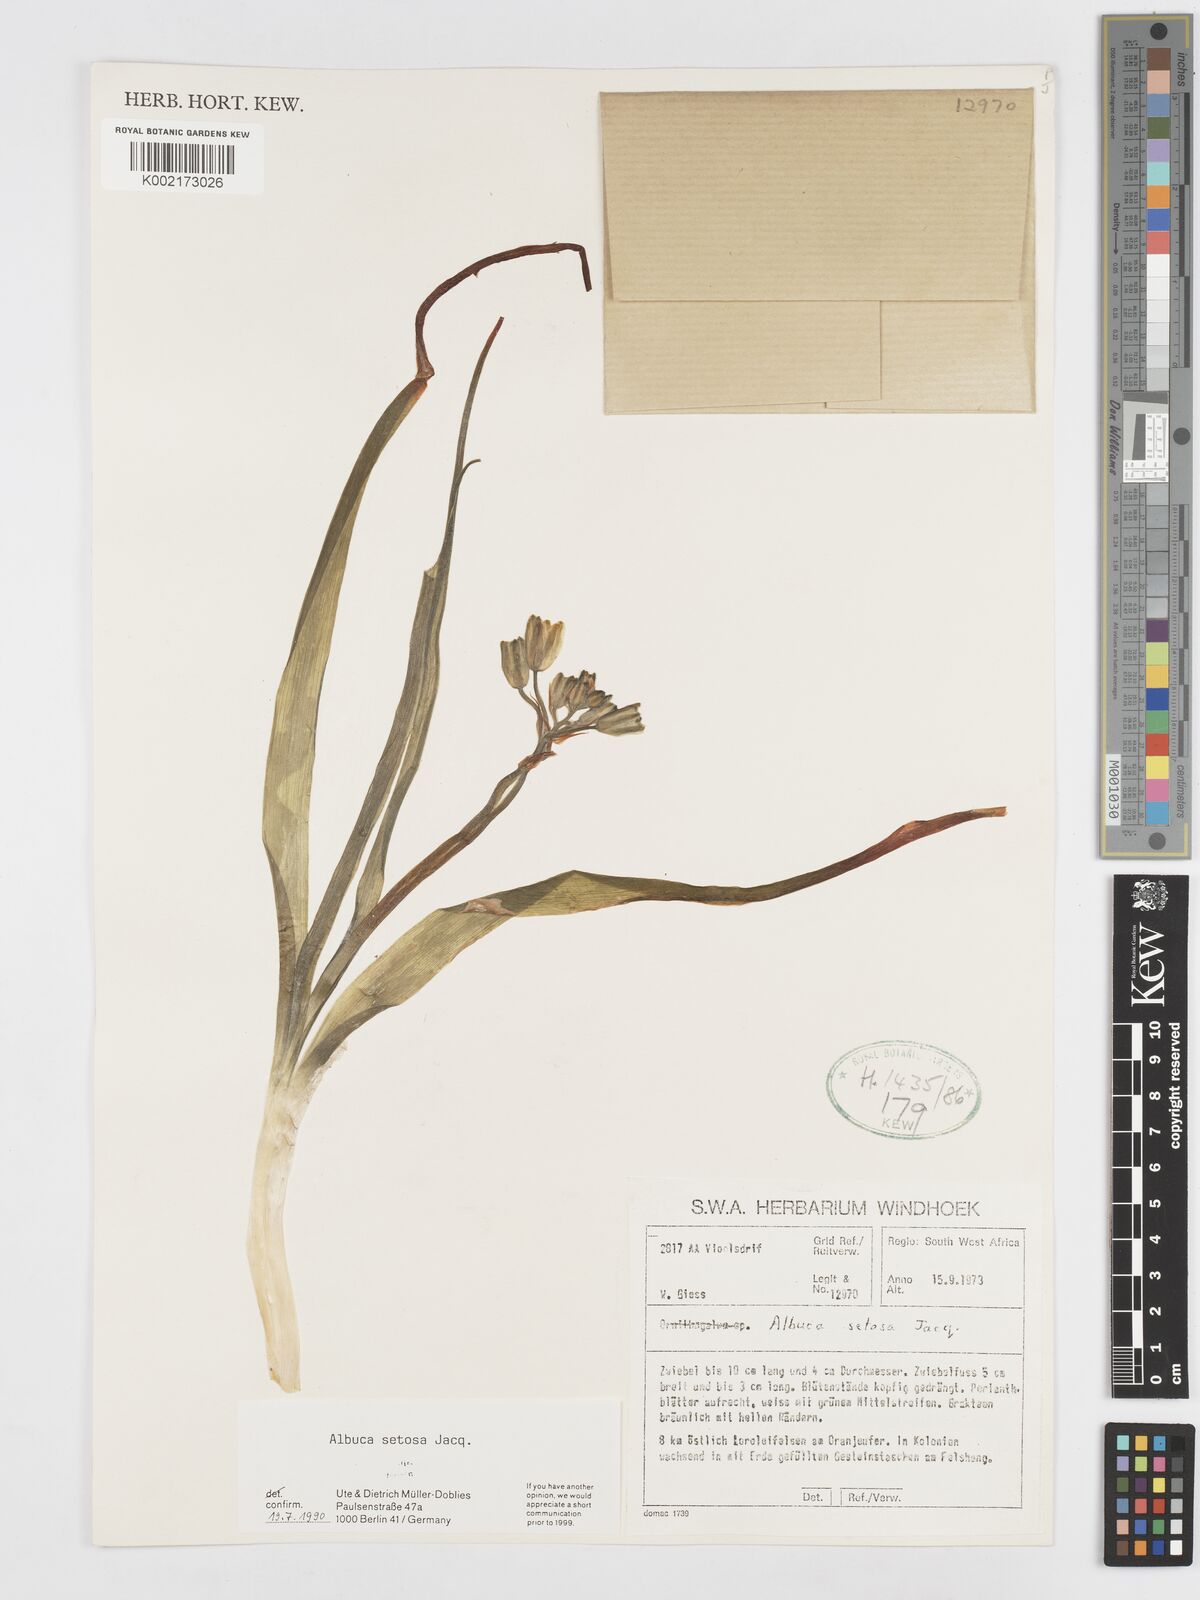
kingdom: Plantae
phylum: Tracheophyta
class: Liliopsida
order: Asparagales
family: Asparagaceae
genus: Albuca
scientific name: Albuca setosa
